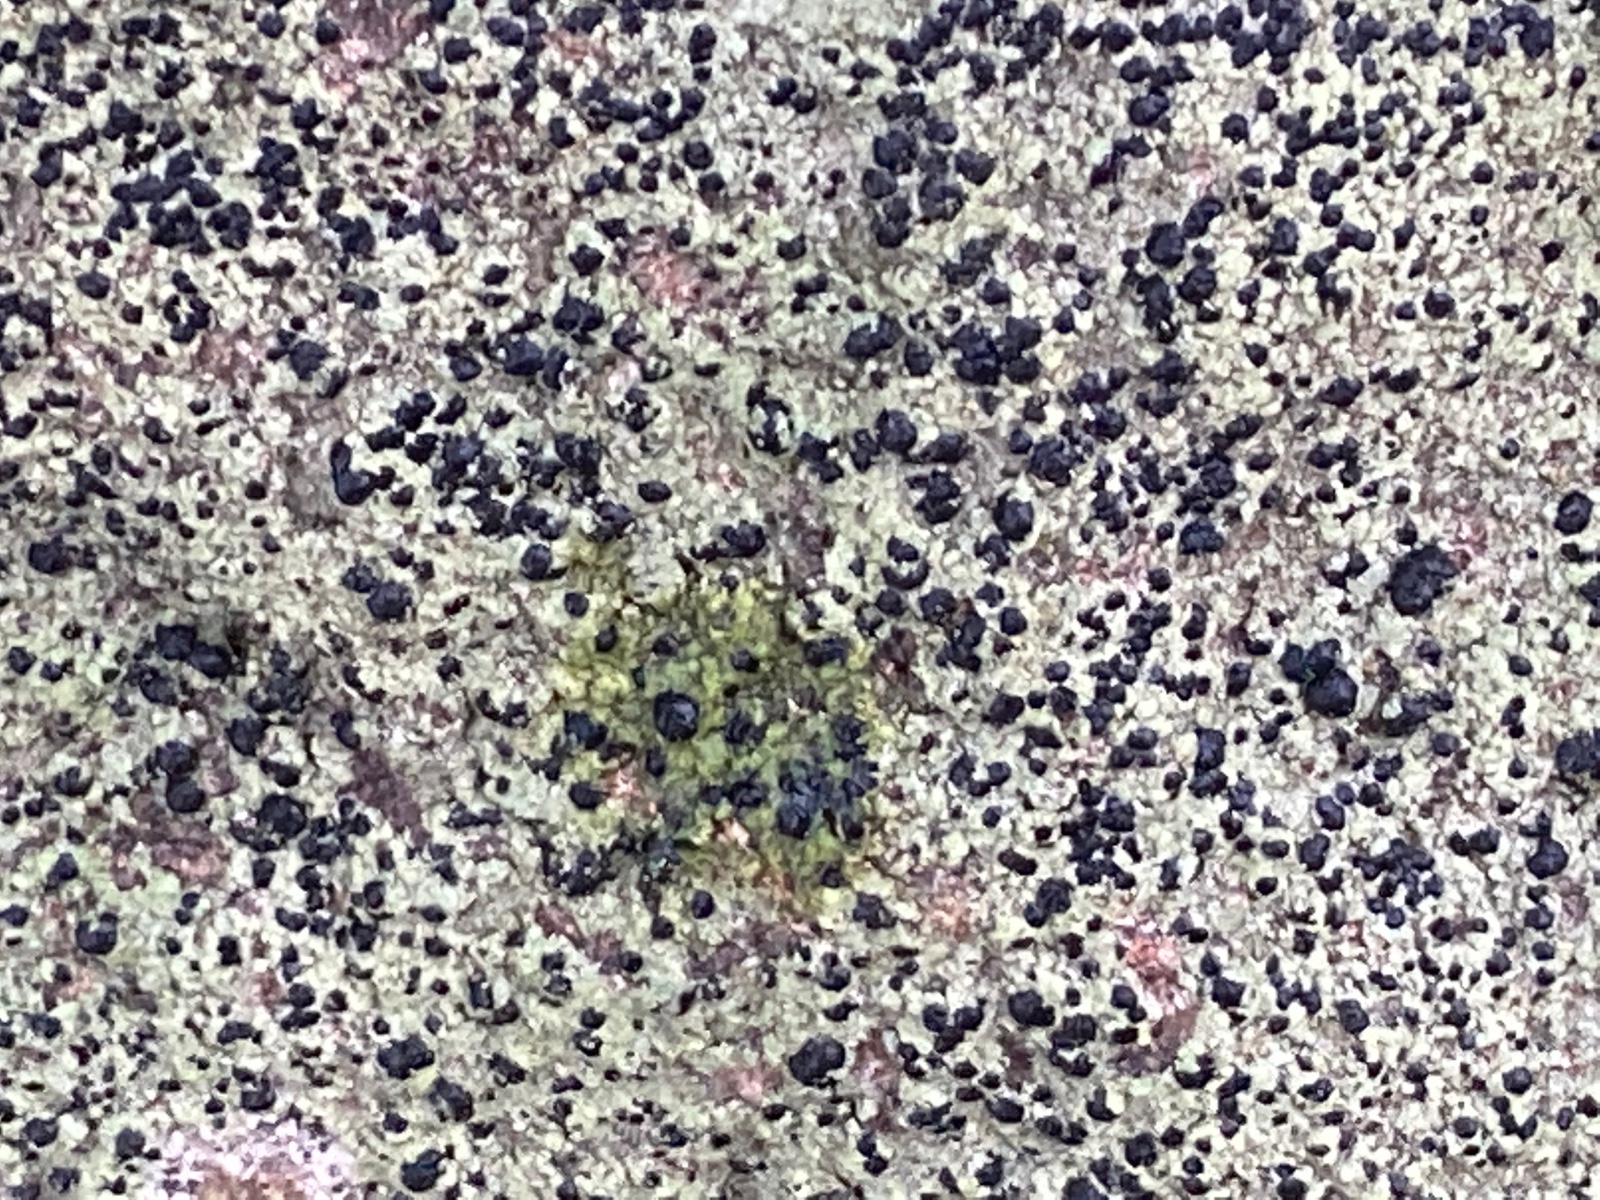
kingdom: Fungi
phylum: Ascomycota
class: Lecanoromycetes
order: Lecanorales
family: Lecanoraceae
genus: Lecidella
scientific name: Lecidella scabra
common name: skurvet skivelav
